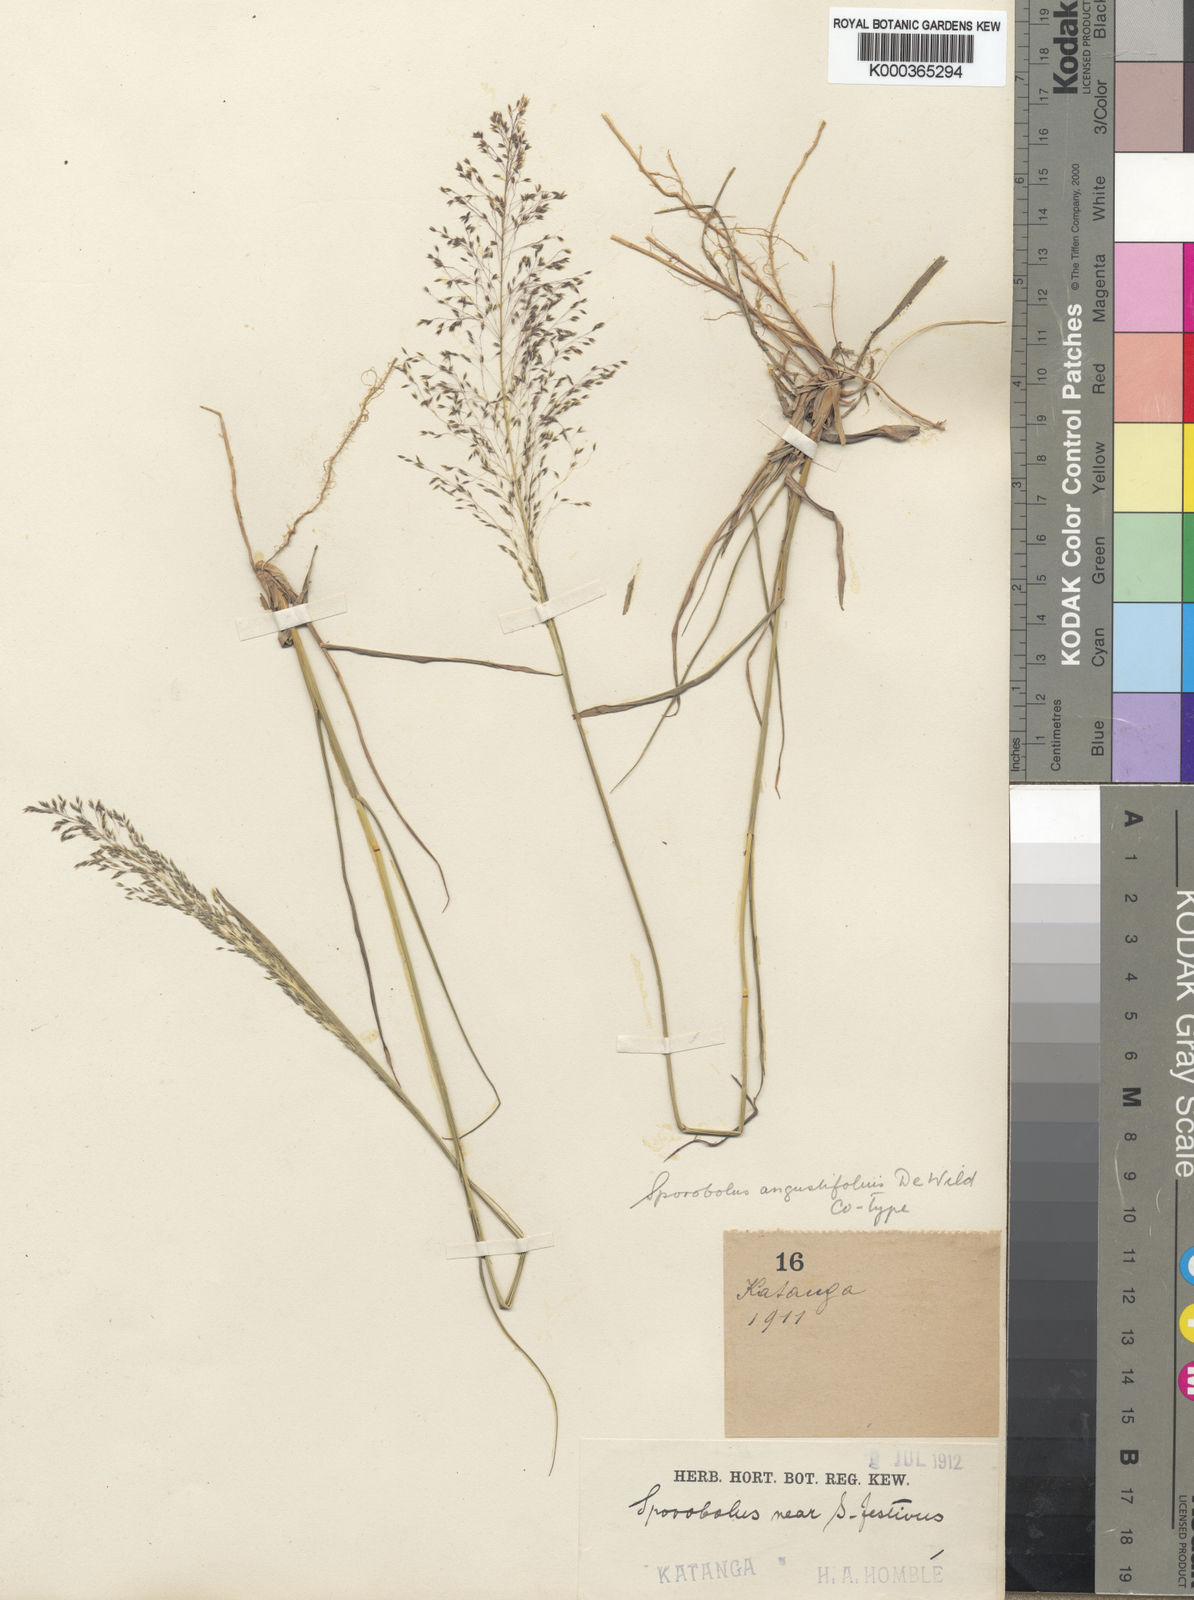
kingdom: Plantae
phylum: Tracheophyta
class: Liliopsida
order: Poales
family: Poaceae
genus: Sporobolus
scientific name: Sporobolus myrianthus
